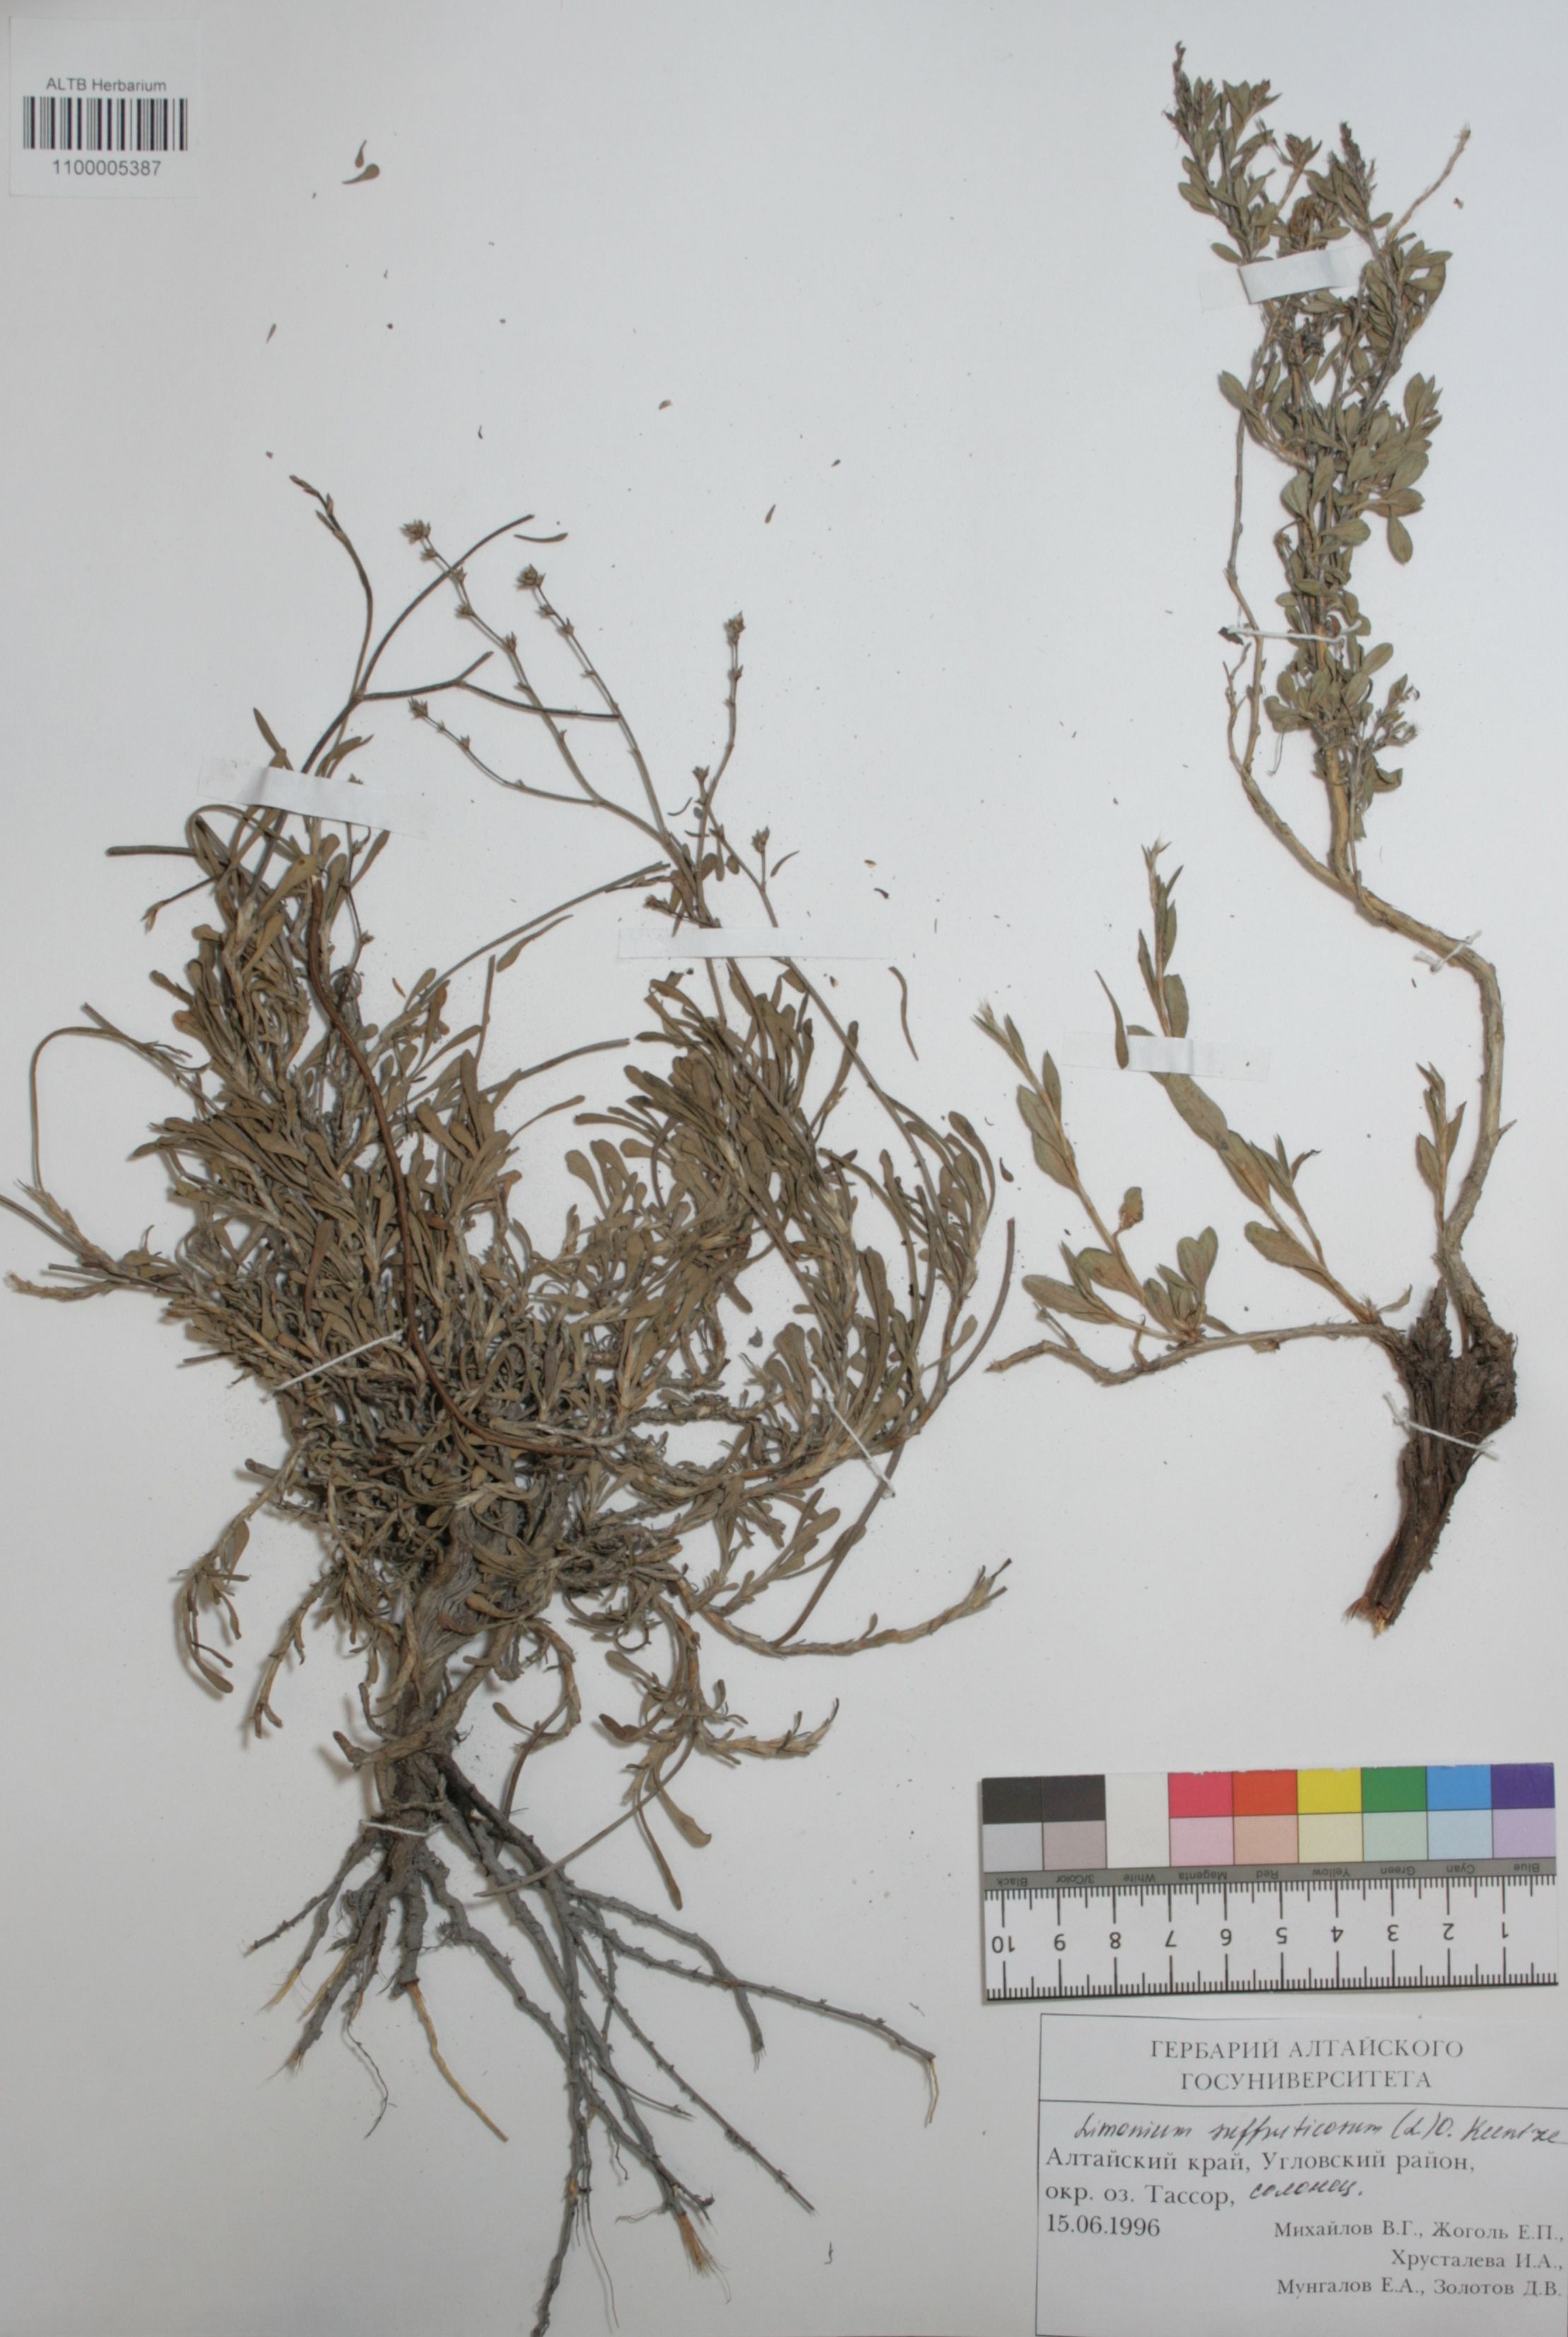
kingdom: Plantae
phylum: Tracheophyta
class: Magnoliopsida
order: Caryophyllales
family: Plumbaginaceae
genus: Limonium
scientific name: Limonium suffruticosum
